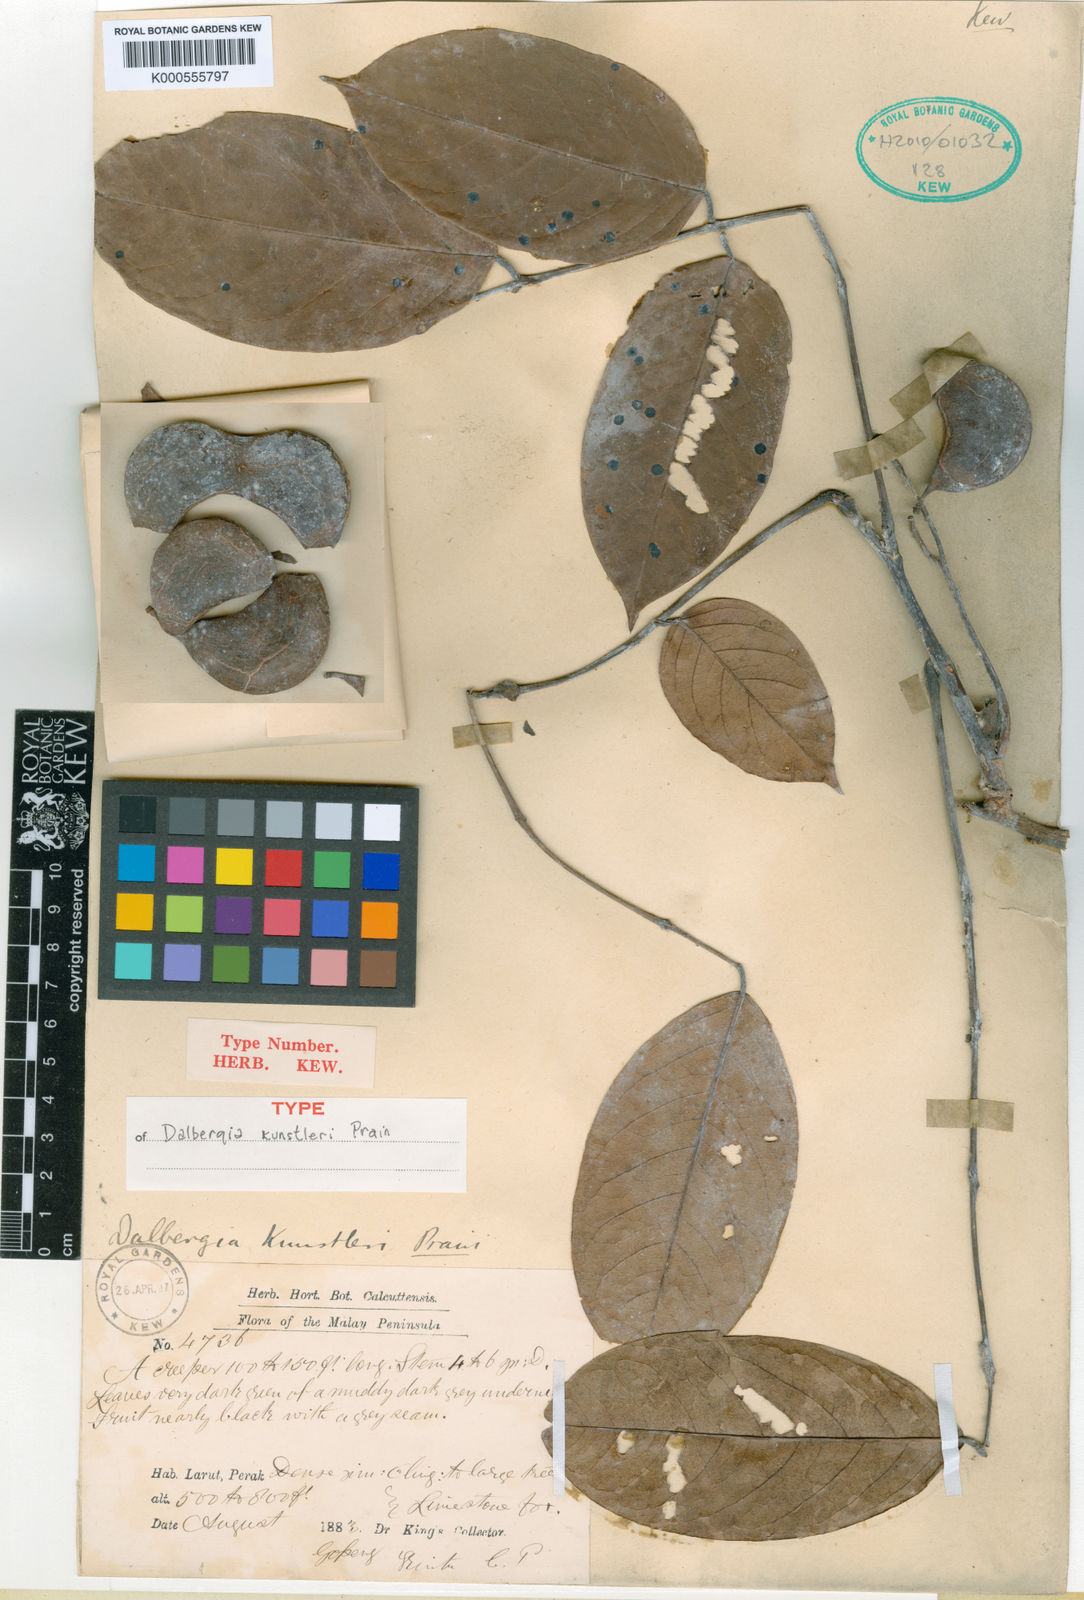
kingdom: Plantae
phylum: Tracheophyta
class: Magnoliopsida
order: Fabales
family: Fabaceae
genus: Dalbergia
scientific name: Dalbergia kunstleri
